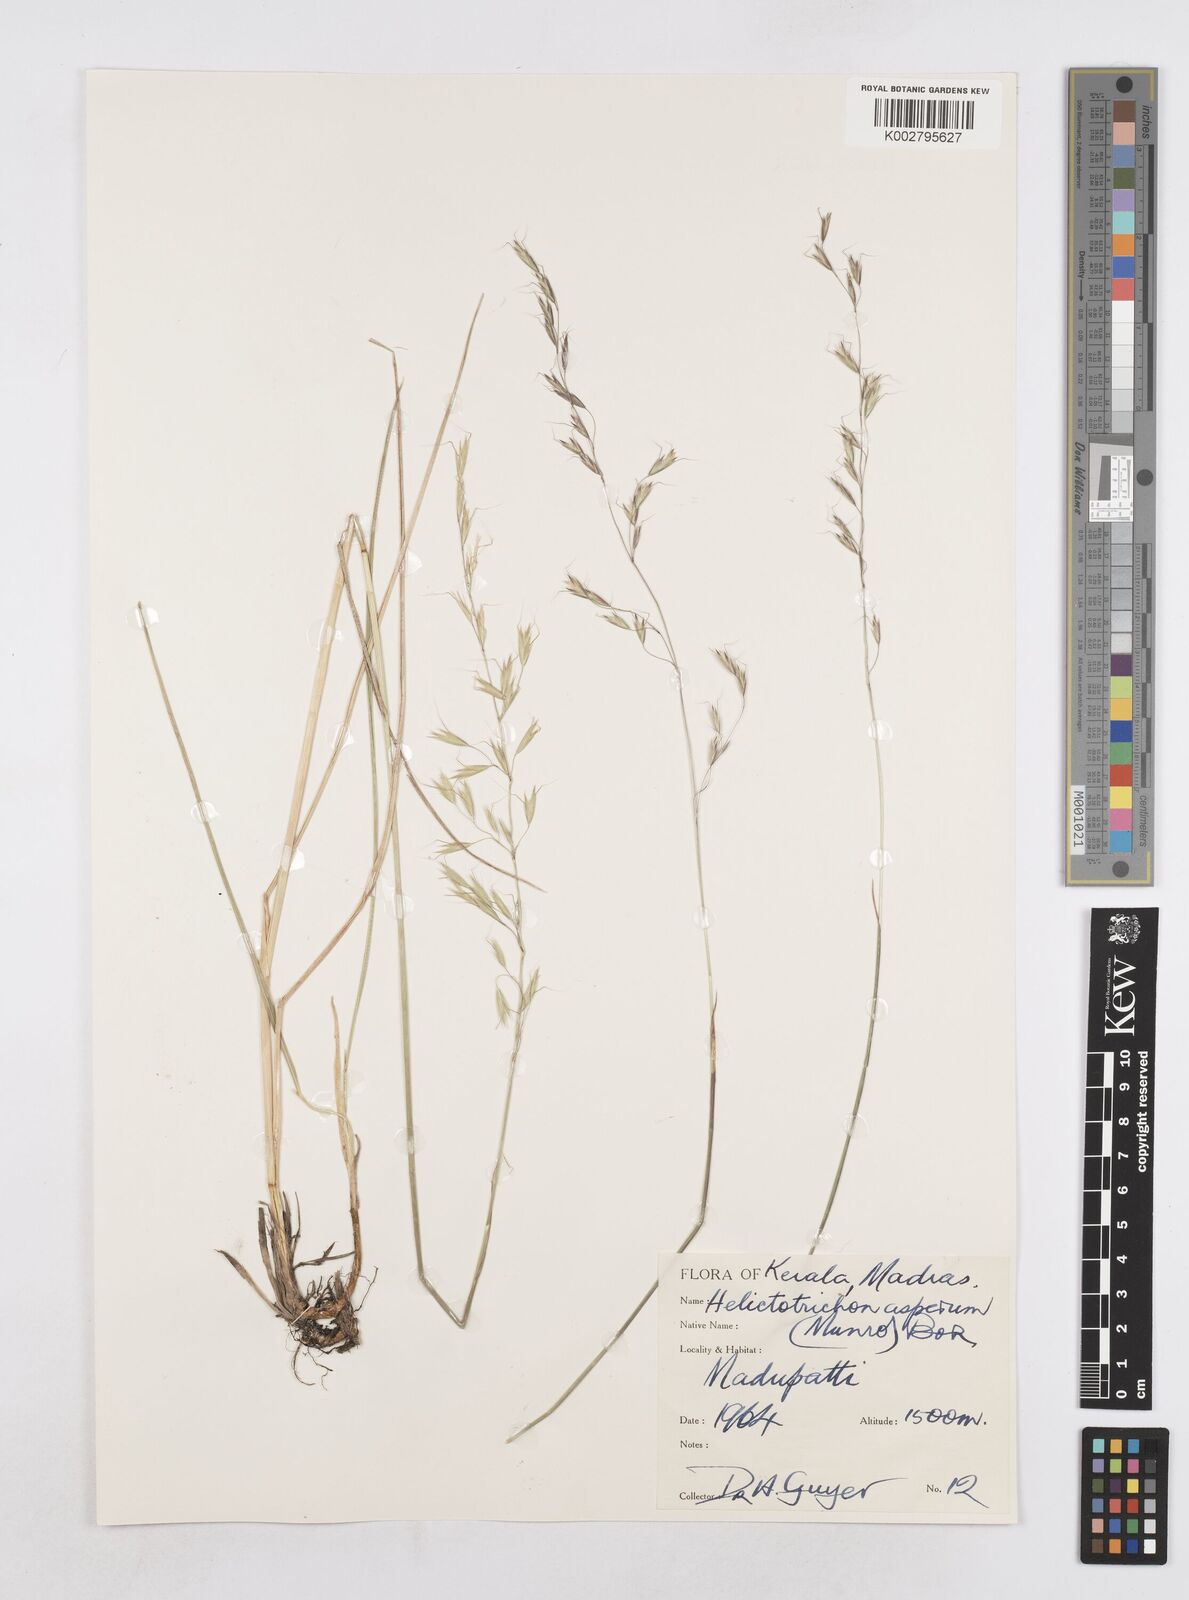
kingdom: Plantae
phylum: Tracheophyta
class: Liliopsida
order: Poales
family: Poaceae
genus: Helictotrichon
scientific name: Helictotrichon
